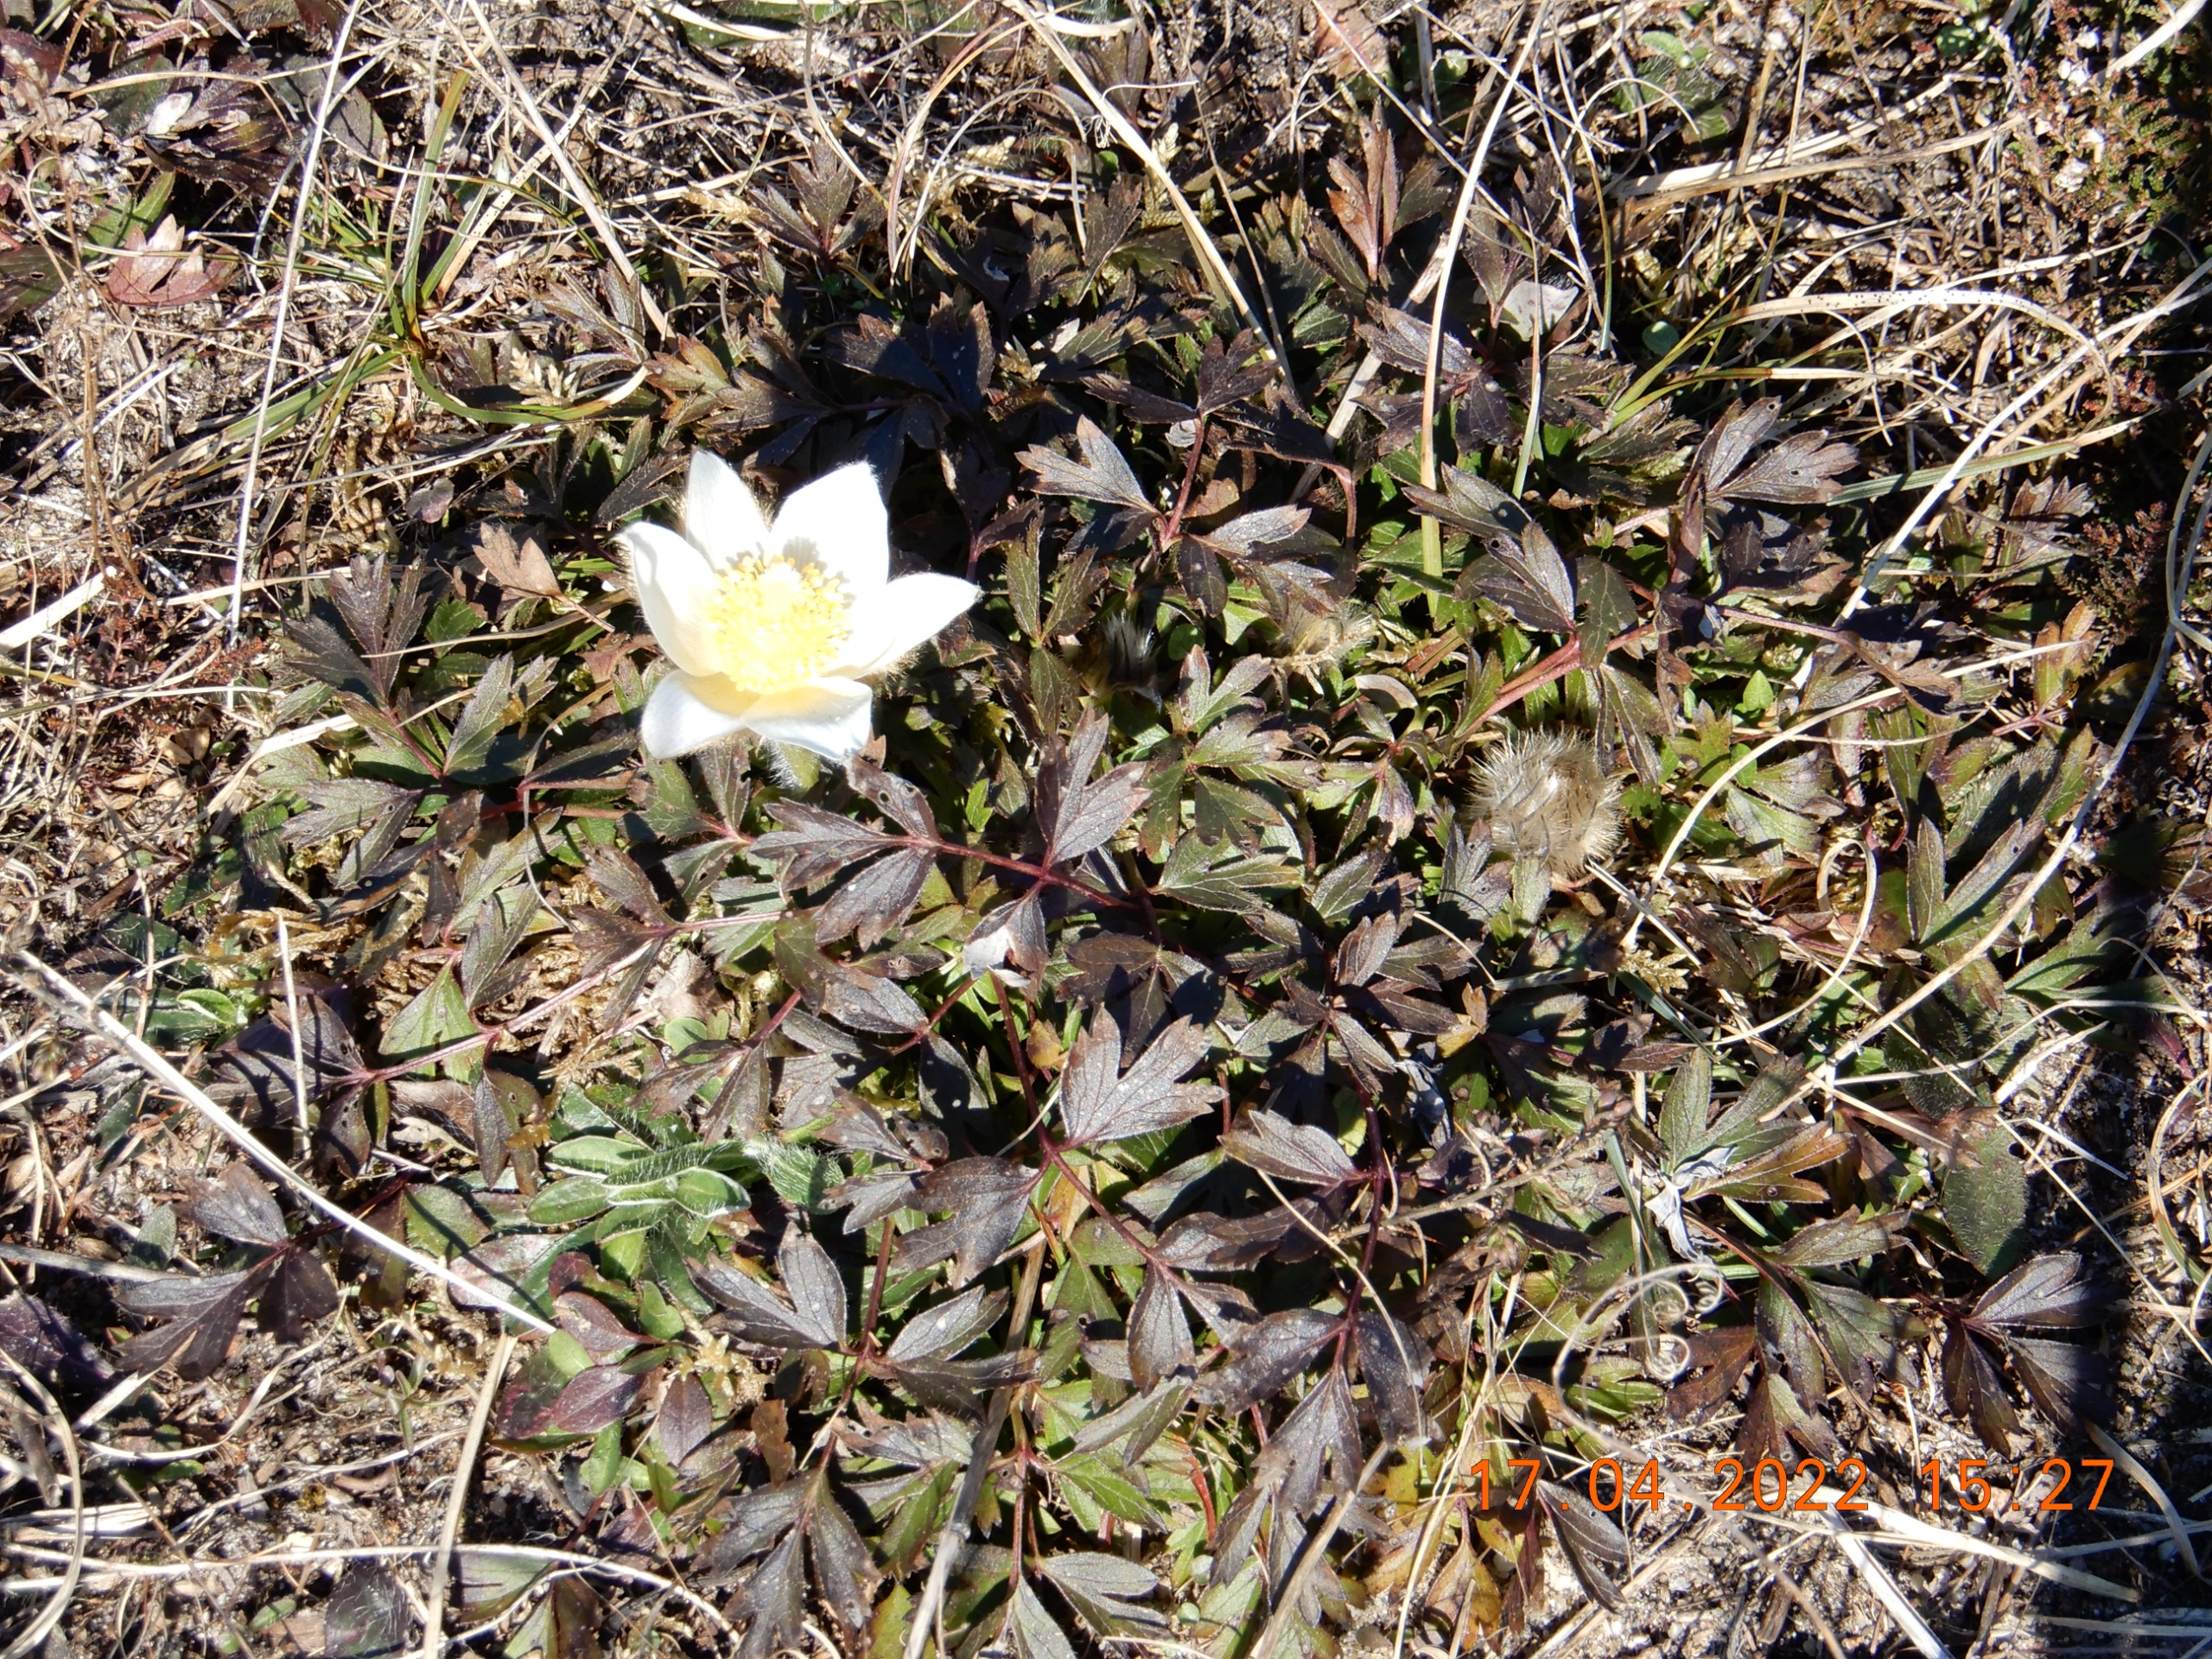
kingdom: Plantae
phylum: Tracheophyta
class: Magnoliopsida
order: Ranunculales
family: Ranunculaceae
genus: Pulsatilla
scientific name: Pulsatilla vernalis
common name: Vår-kobjælde
